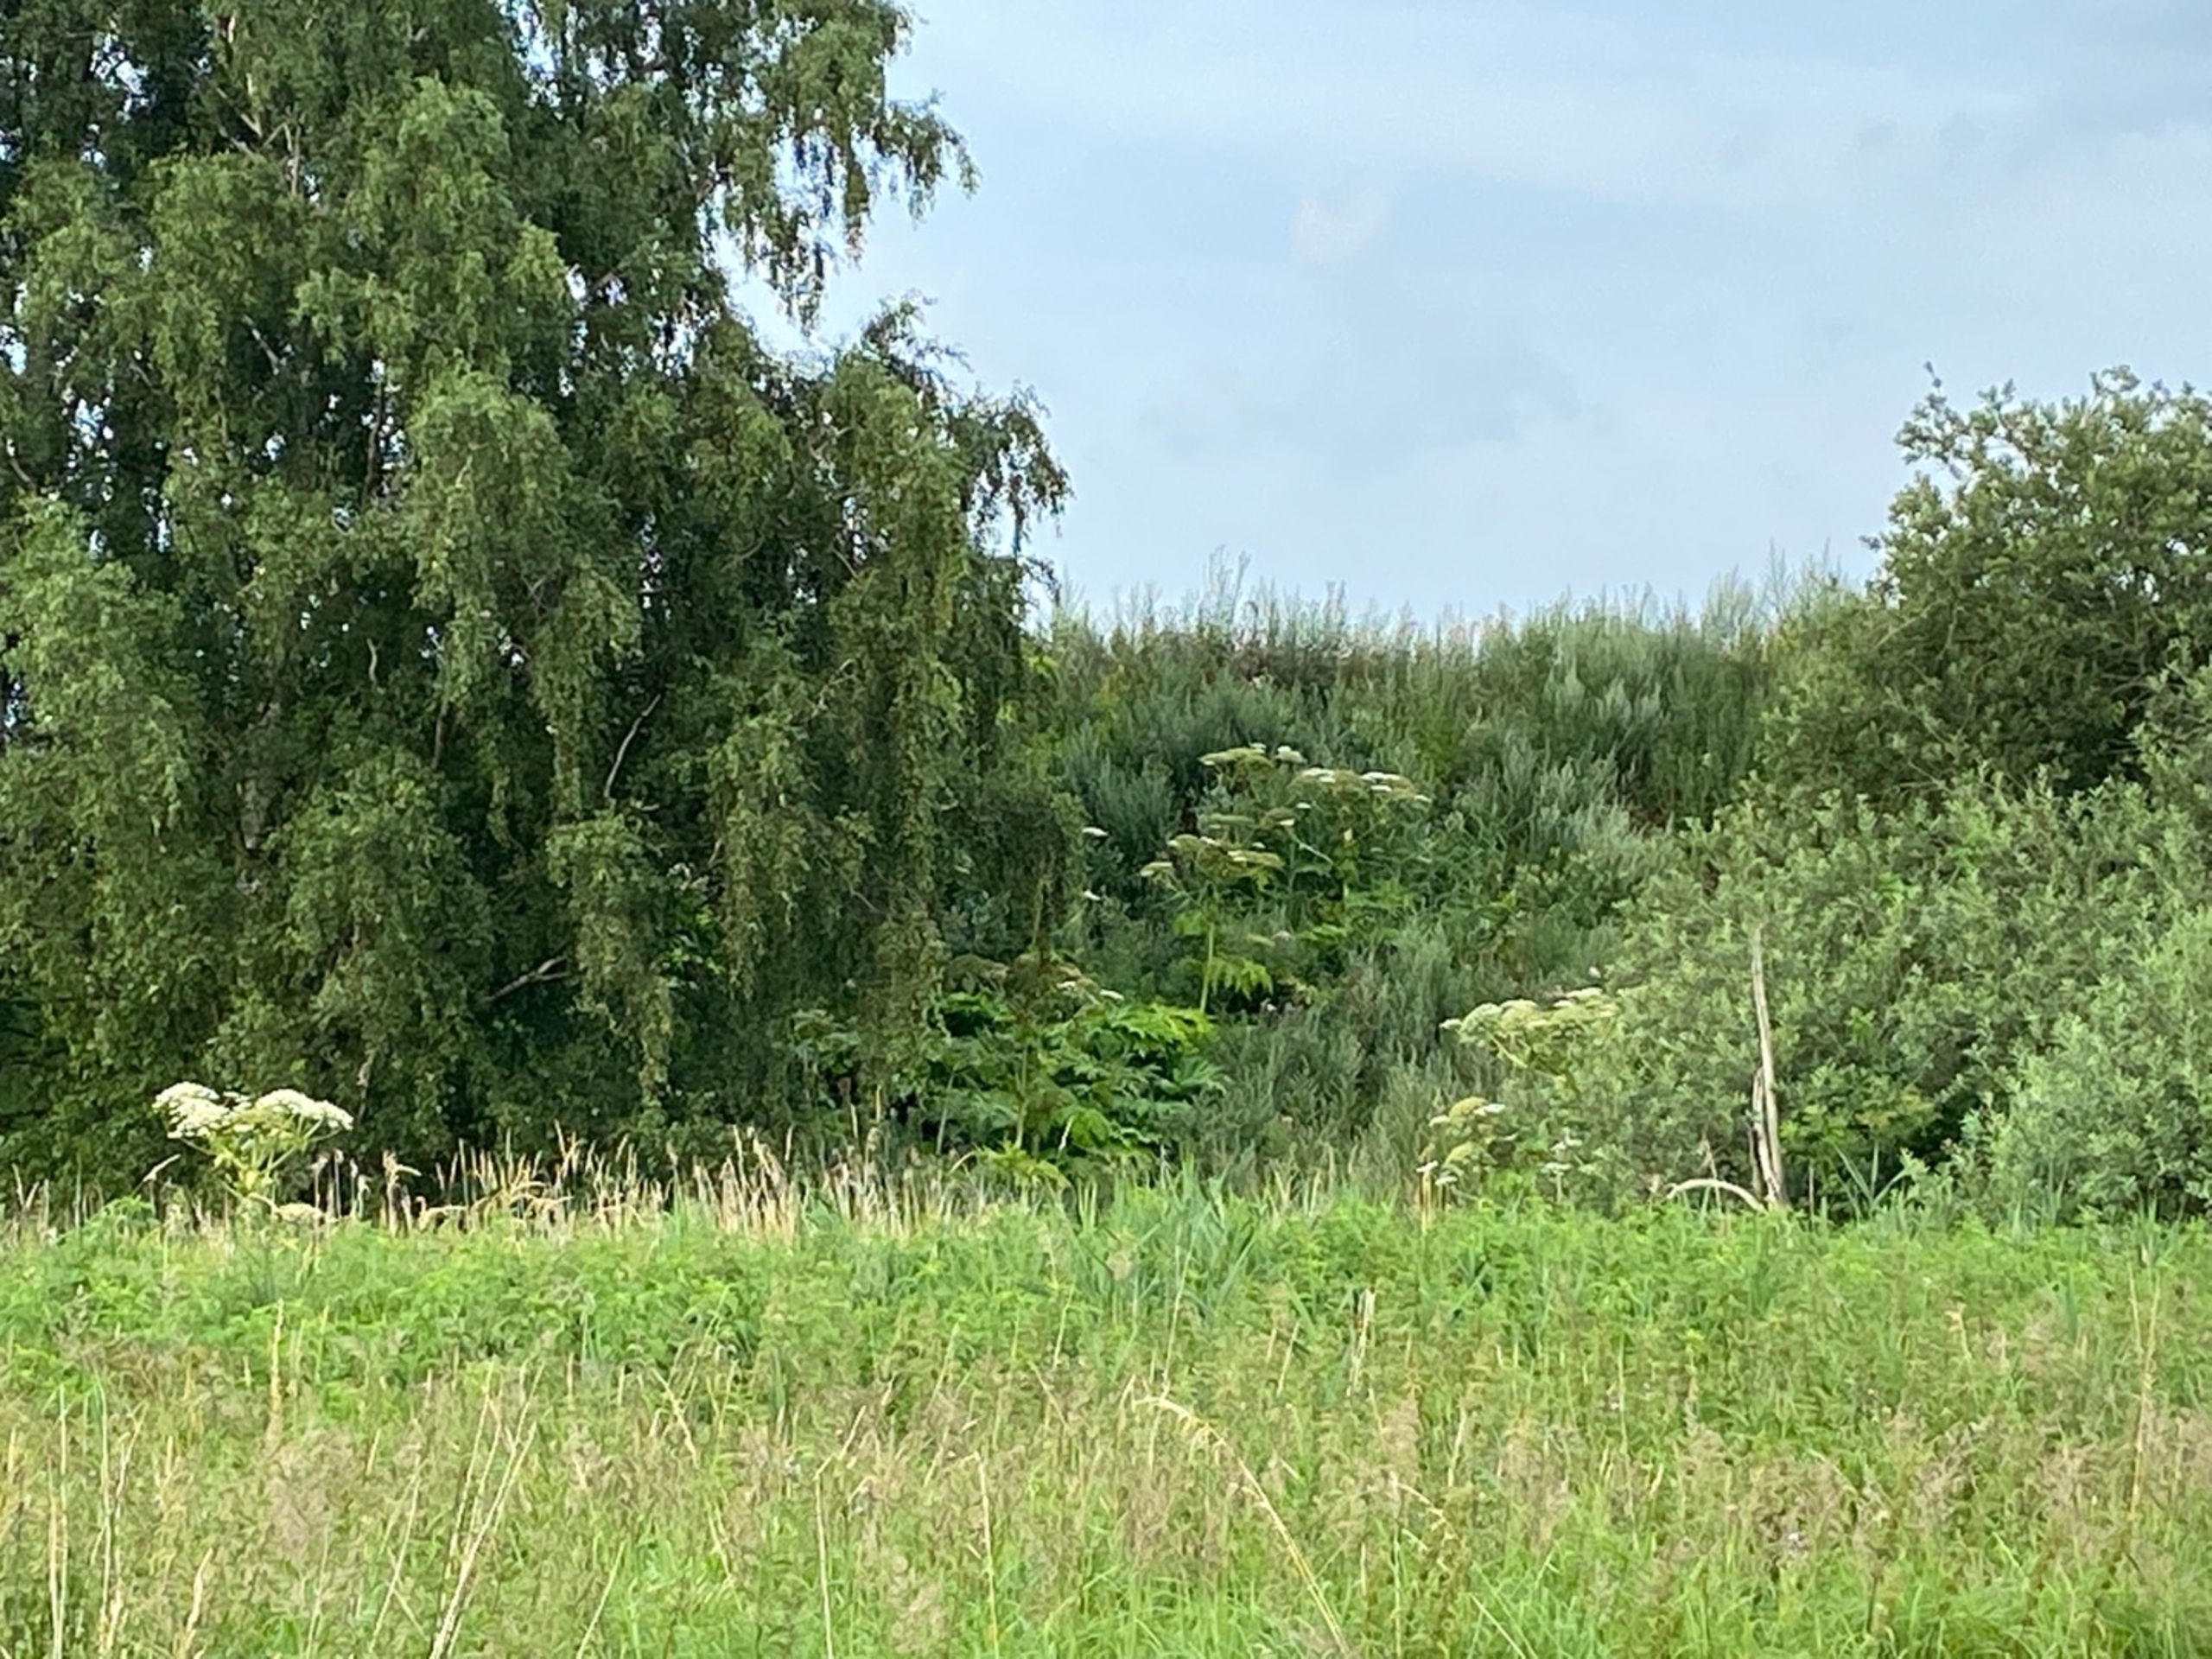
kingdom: Plantae
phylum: Tracheophyta
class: Magnoliopsida
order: Apiales
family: Apiaceae
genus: Heracleum
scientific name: Heracleum mantegazzianum
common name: Kæmpe-bjørneklo
